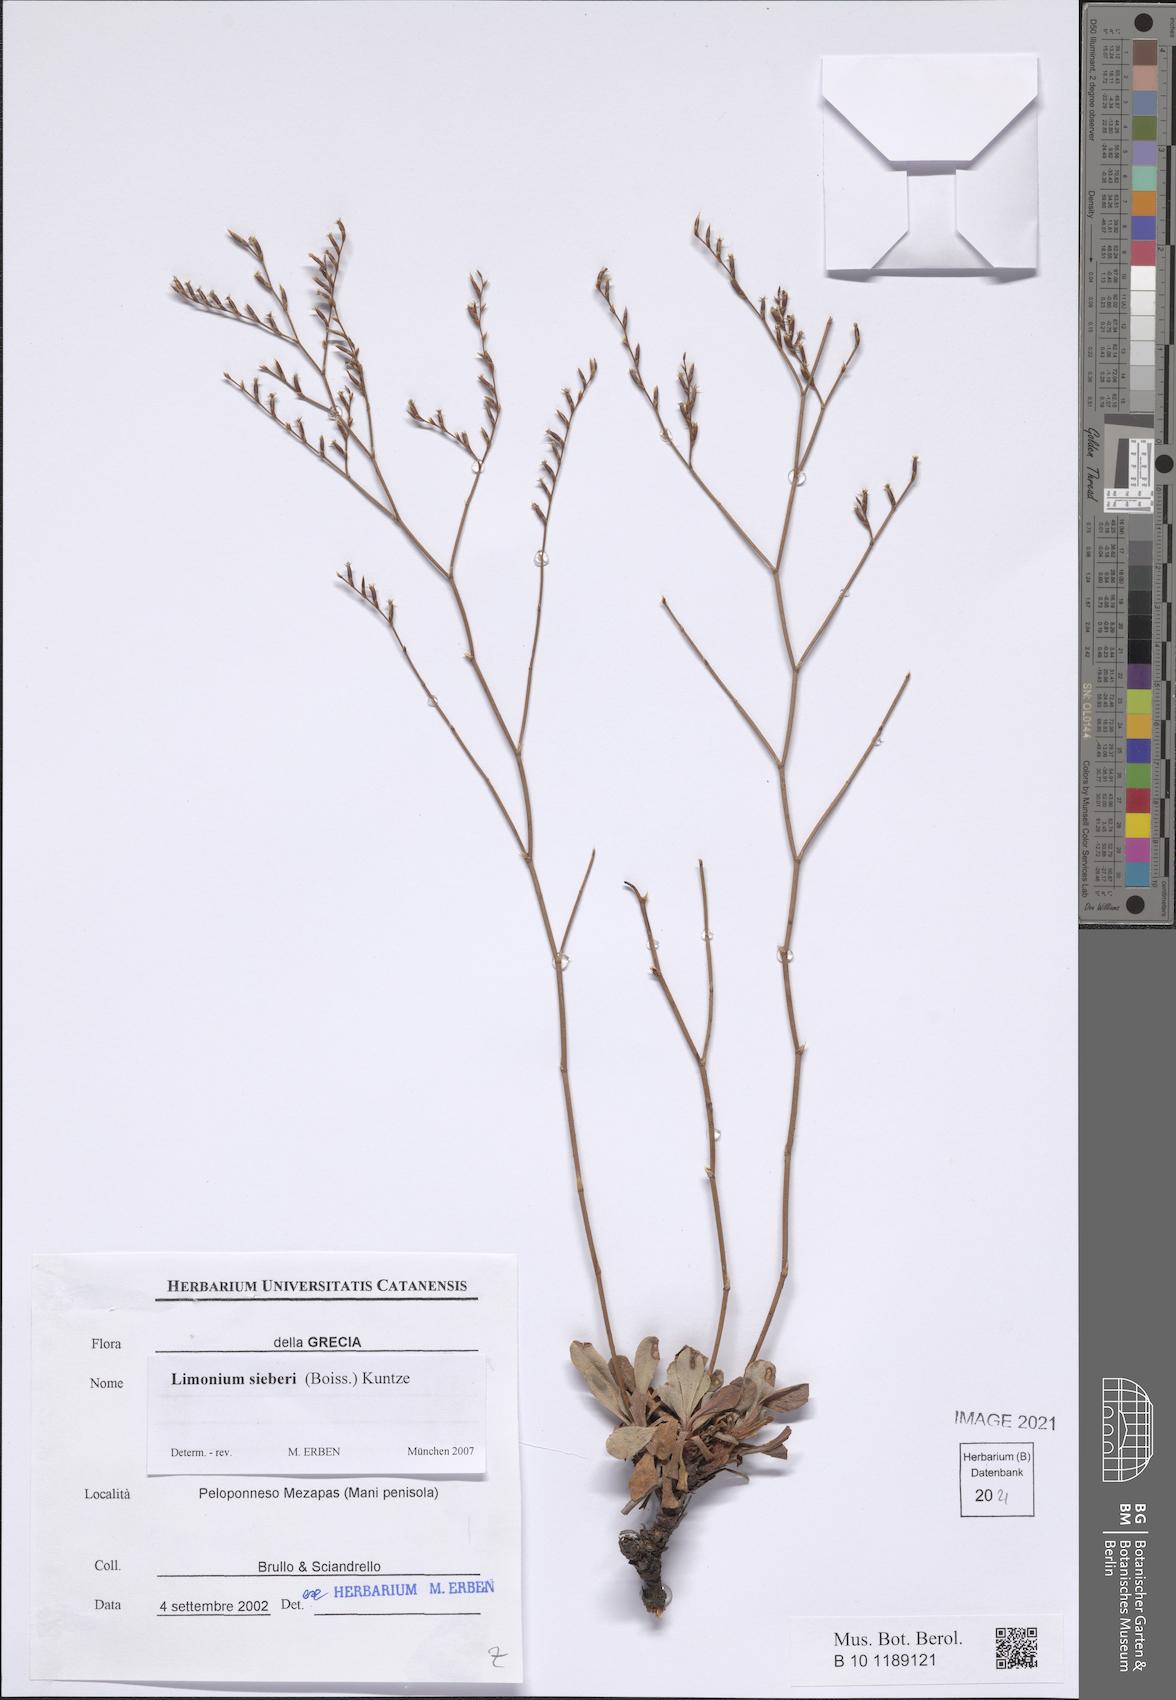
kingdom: Plantae
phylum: Tracheophyta
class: Magnoliopsida
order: Caryophyllales
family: Plumbaginaceae
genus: Limonium
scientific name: Limonium sieberi
